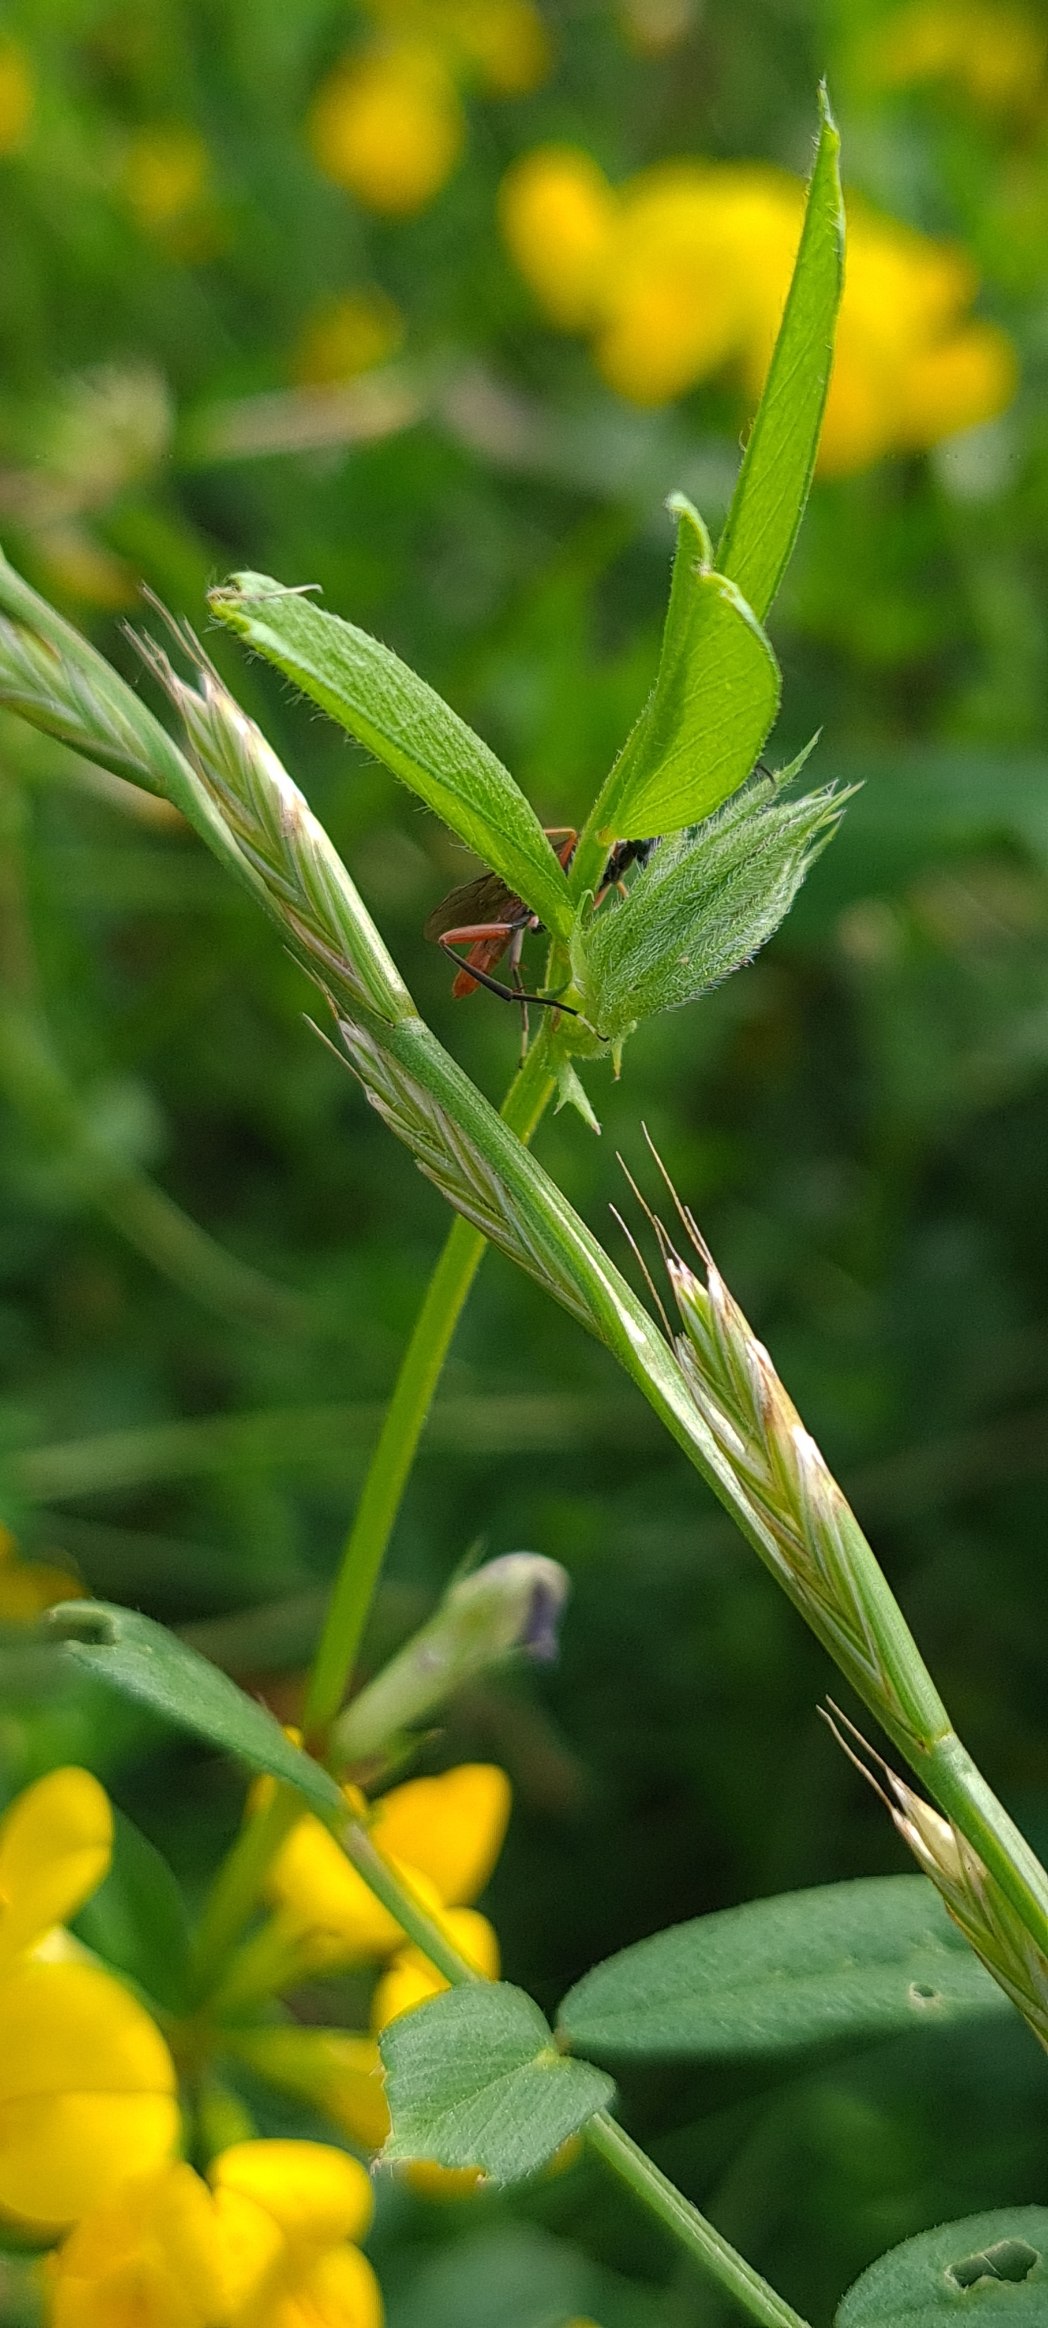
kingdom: Animalia
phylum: Arthropoda
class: Insecta
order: Hymenoptera
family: Ichneumonidae
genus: Exetastes
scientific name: Exetastes adpressorius
